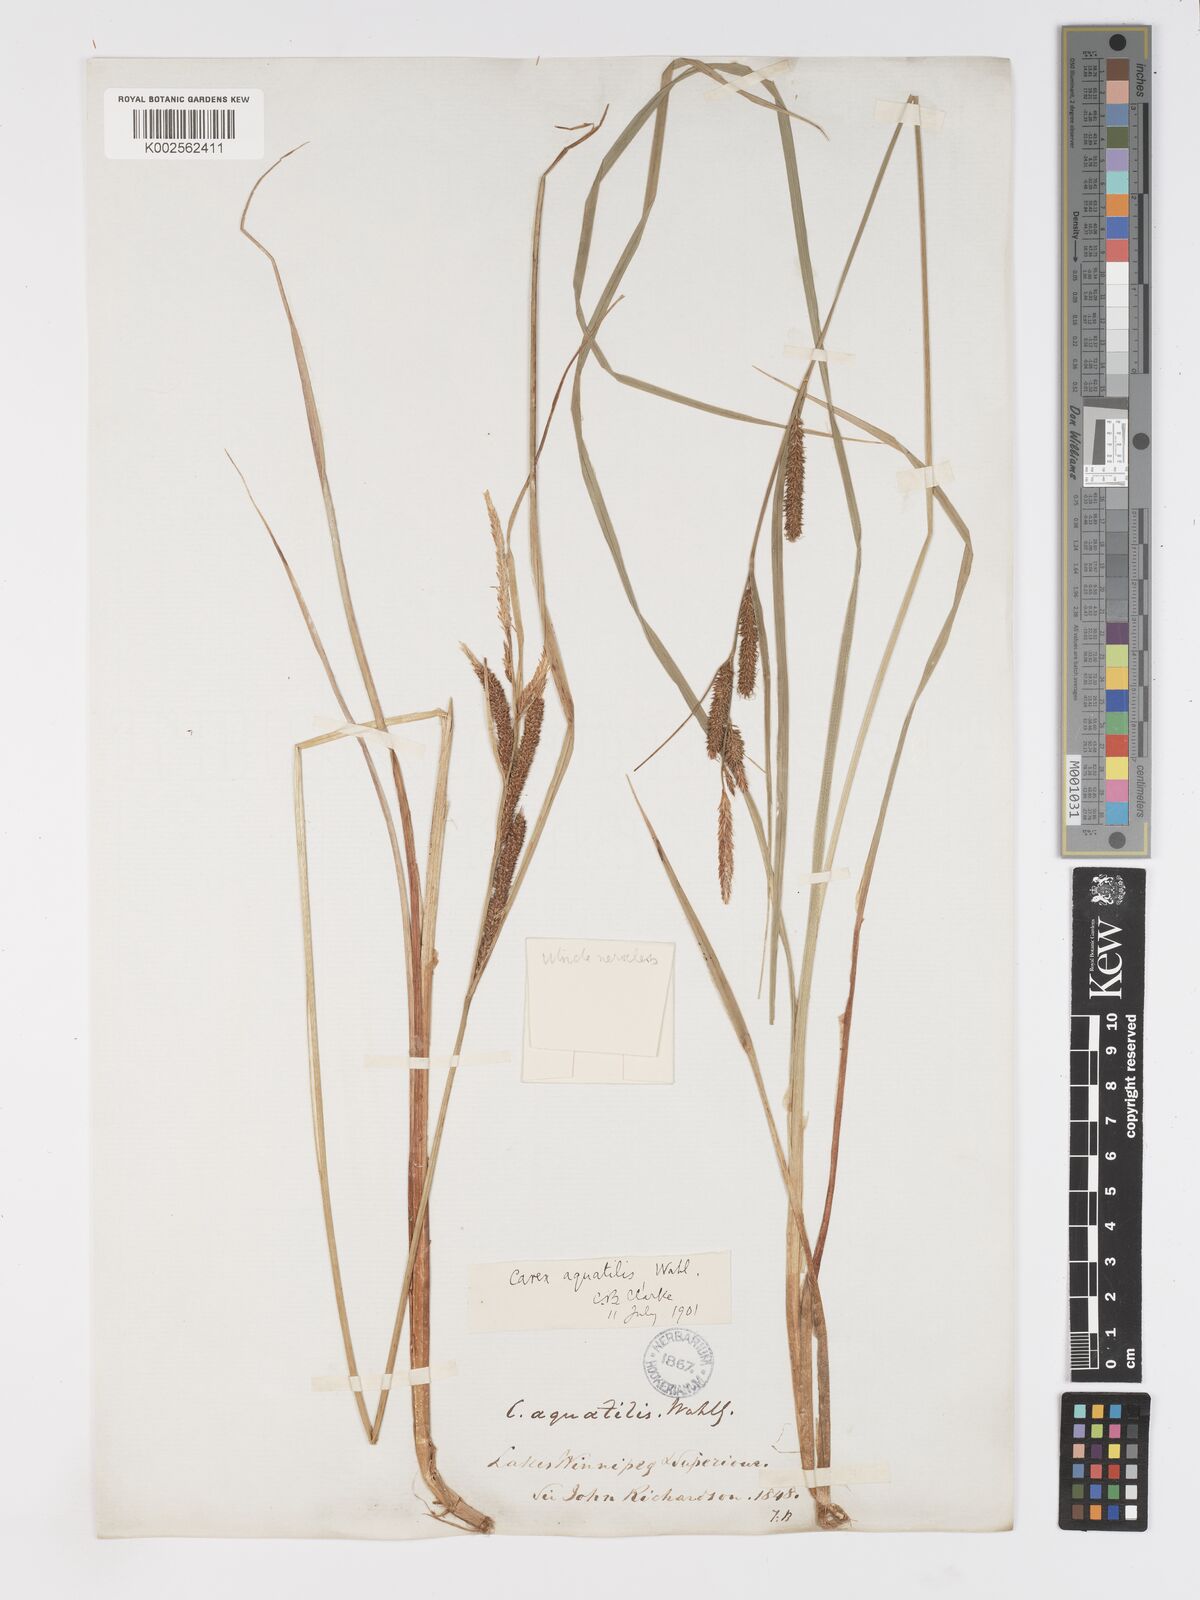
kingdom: Plantae
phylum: Tracheophyta
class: Liliopsida
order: Poales
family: Cyperaceae
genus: Carex
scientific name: Carex aquatilis
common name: Water sedge
